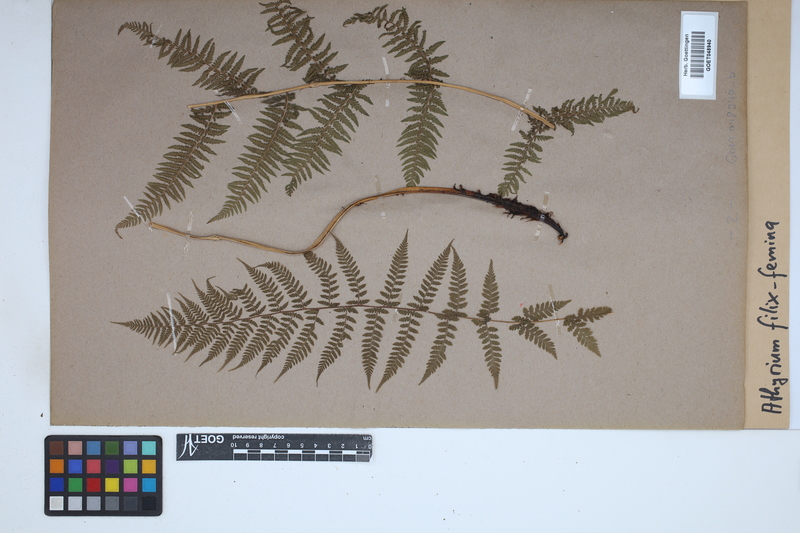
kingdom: Plantae
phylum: Tracheophyta
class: Polypodiopsida
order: Polypodiales
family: Athyriaceae
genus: Athyrium
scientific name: Athyrium filix-femina
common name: Lady fern
